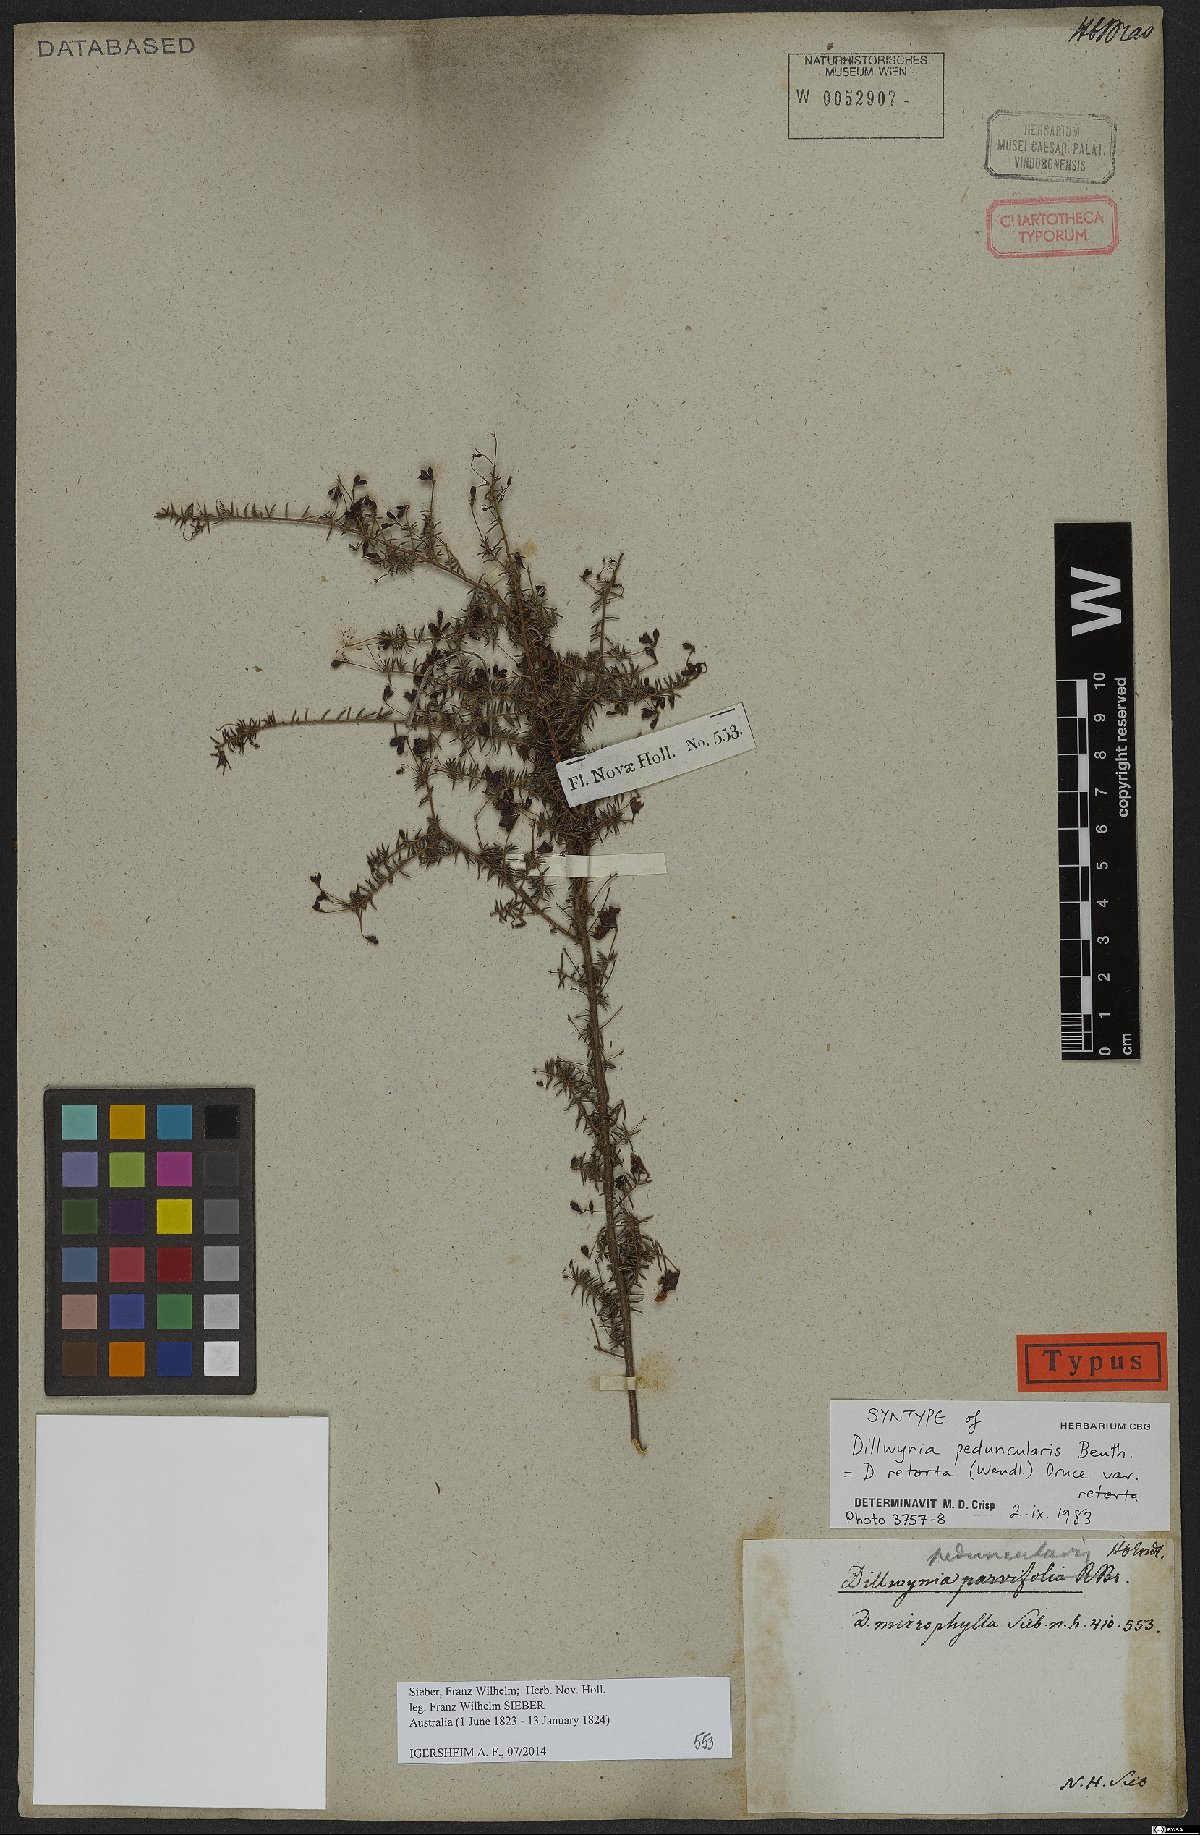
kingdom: Plantae
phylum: Tracheophyta
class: Magnoliopsida
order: Fabales
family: Fabaceae
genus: Dillwynia
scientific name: Dillwynia retorta
